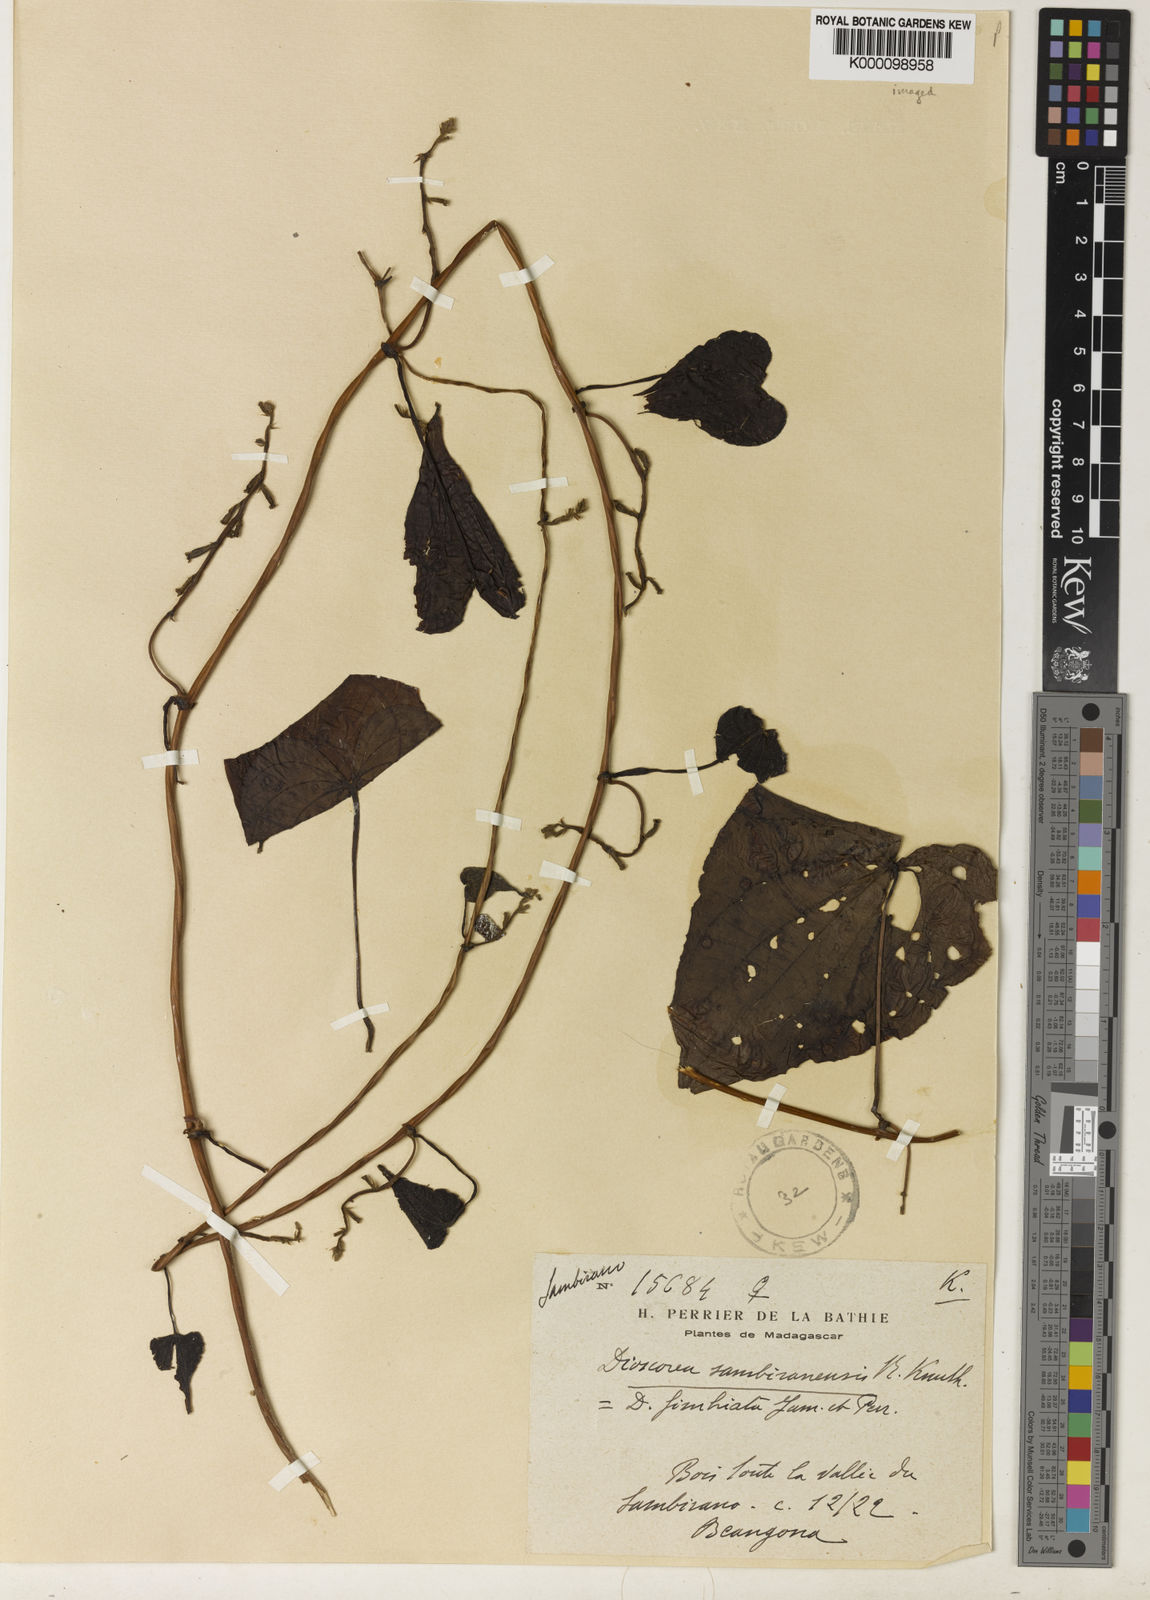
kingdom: Plantae
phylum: Tracheophyta
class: Liliopsida
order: Dioscoreales
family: Dioscoreaceae
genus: Dioscorea
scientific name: Dioscorea sambiranensis
